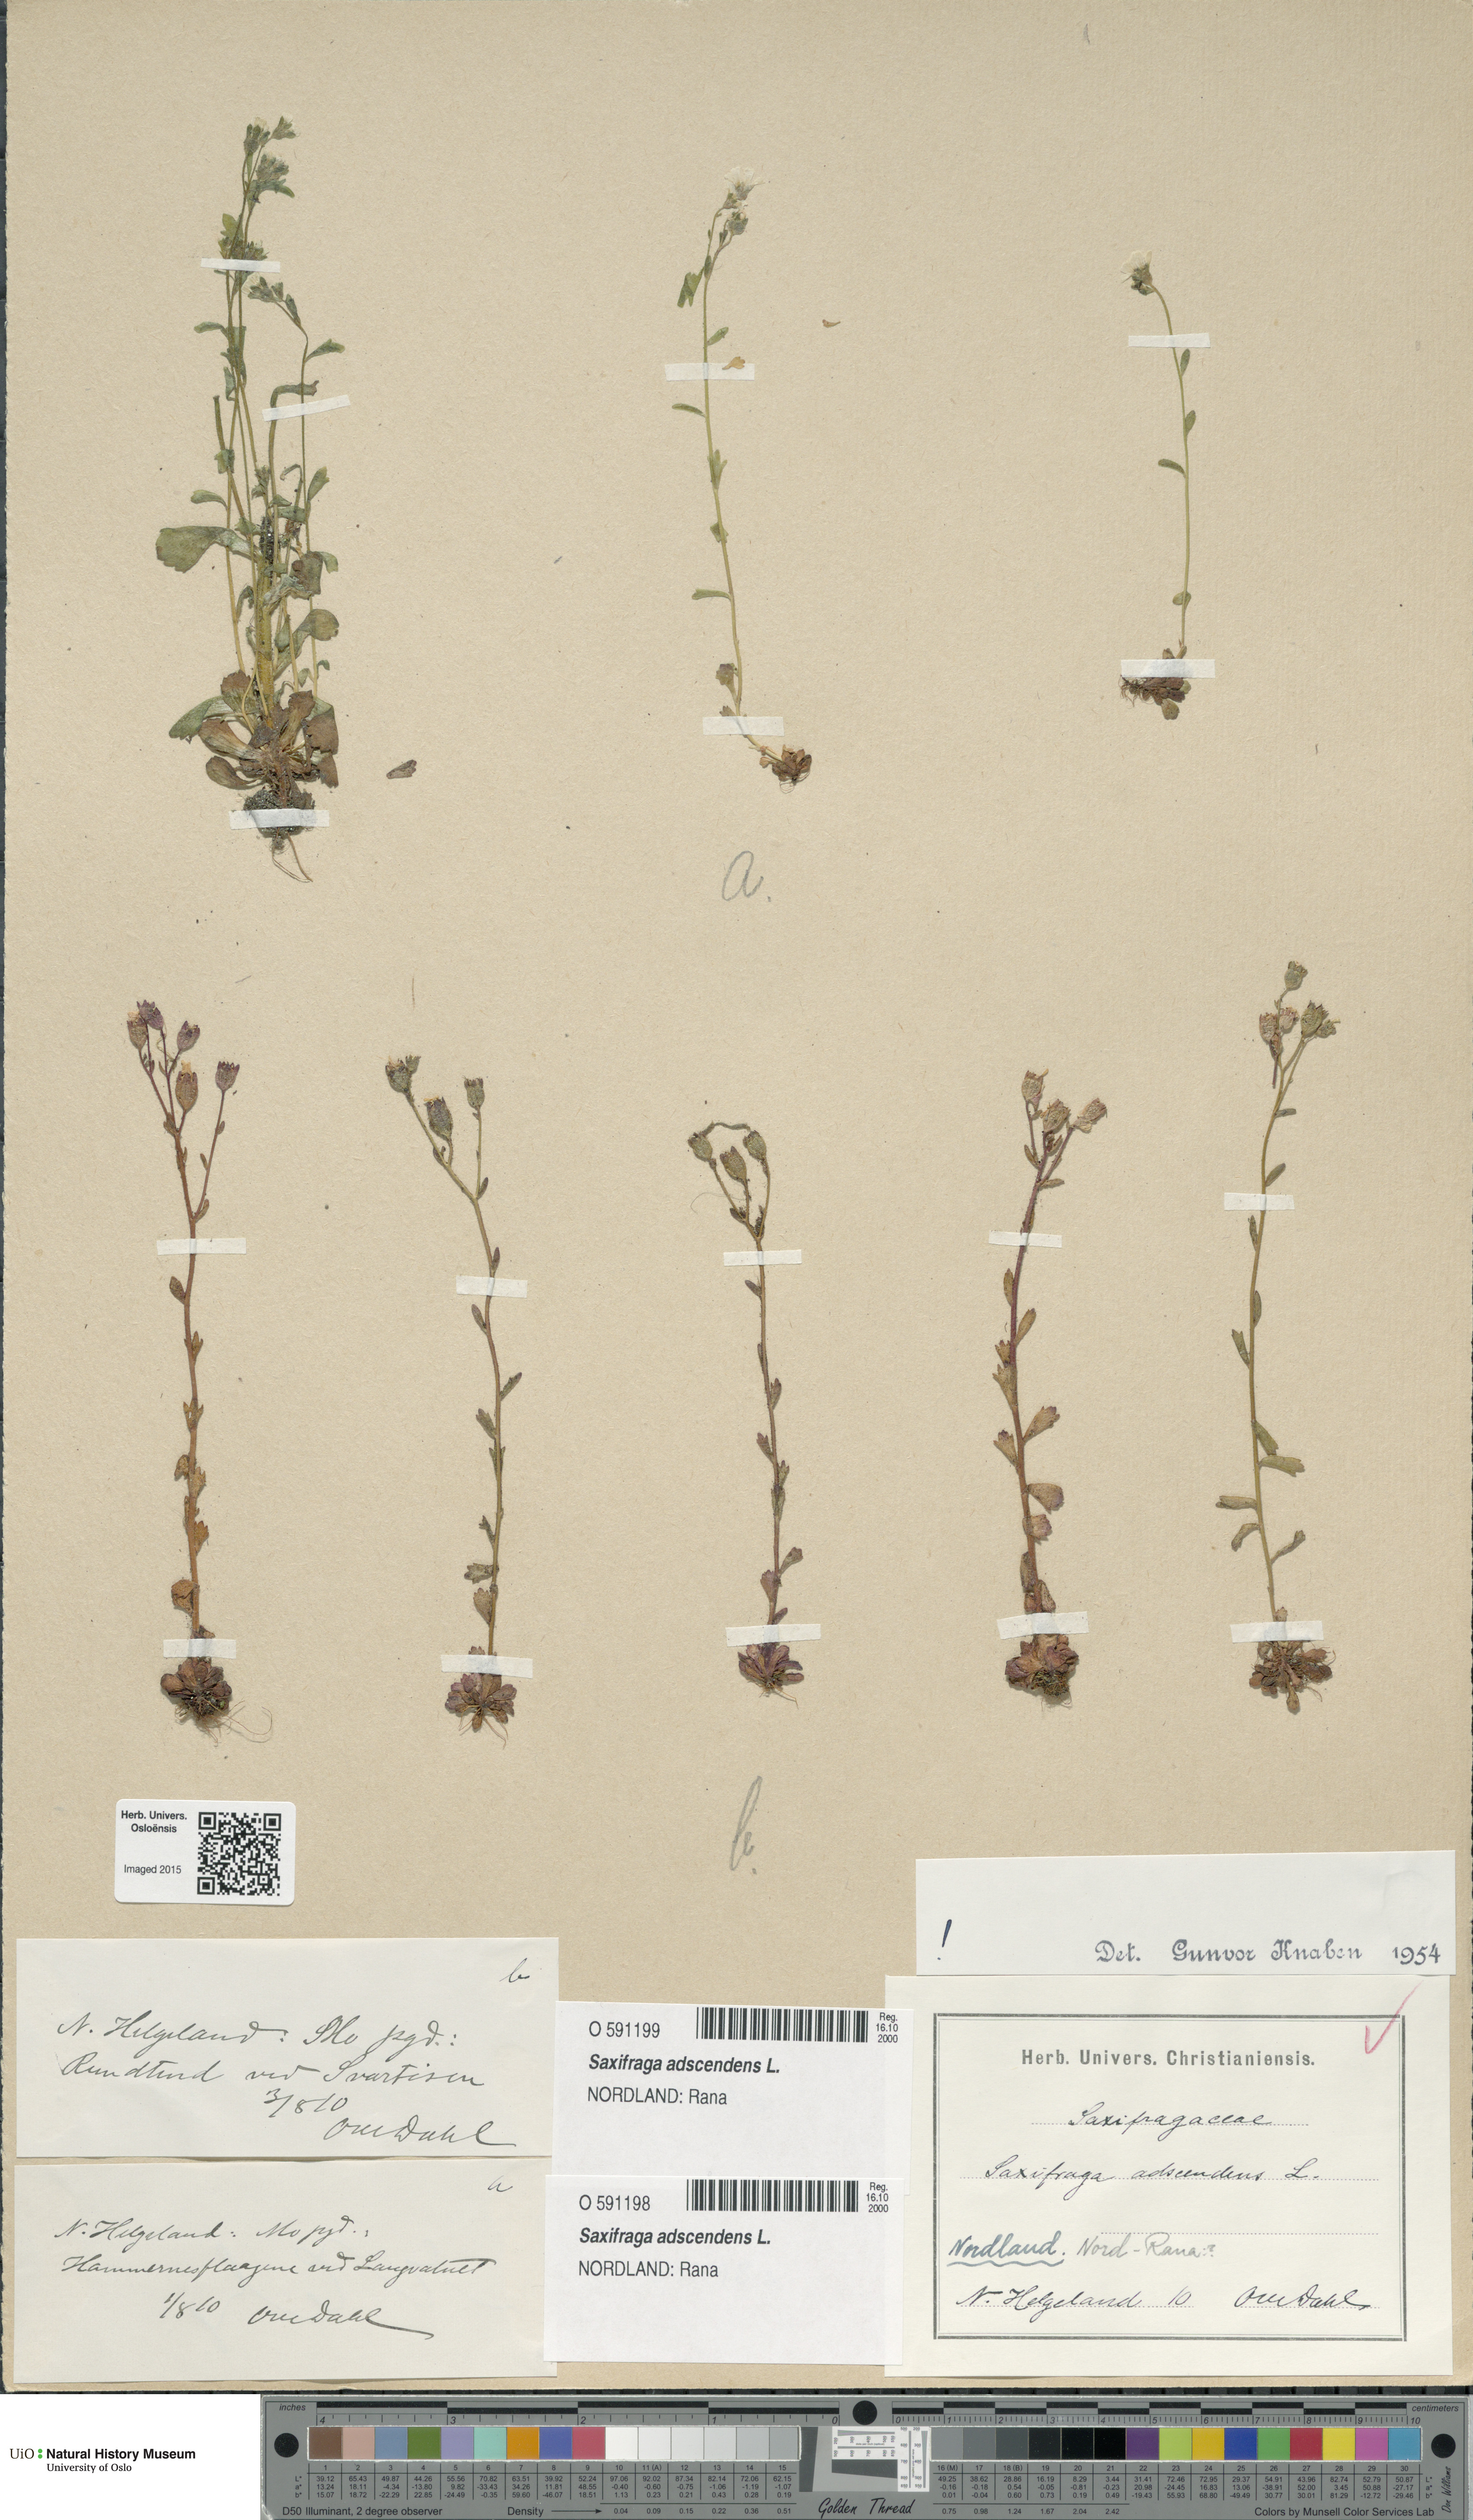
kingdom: Plantae
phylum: Tracheophyta
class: Magnoliopsida
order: Saxifragales
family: Saxifragaceae
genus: Saxifraga
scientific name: Saxifraga adscendens
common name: Ascending saxifrage
